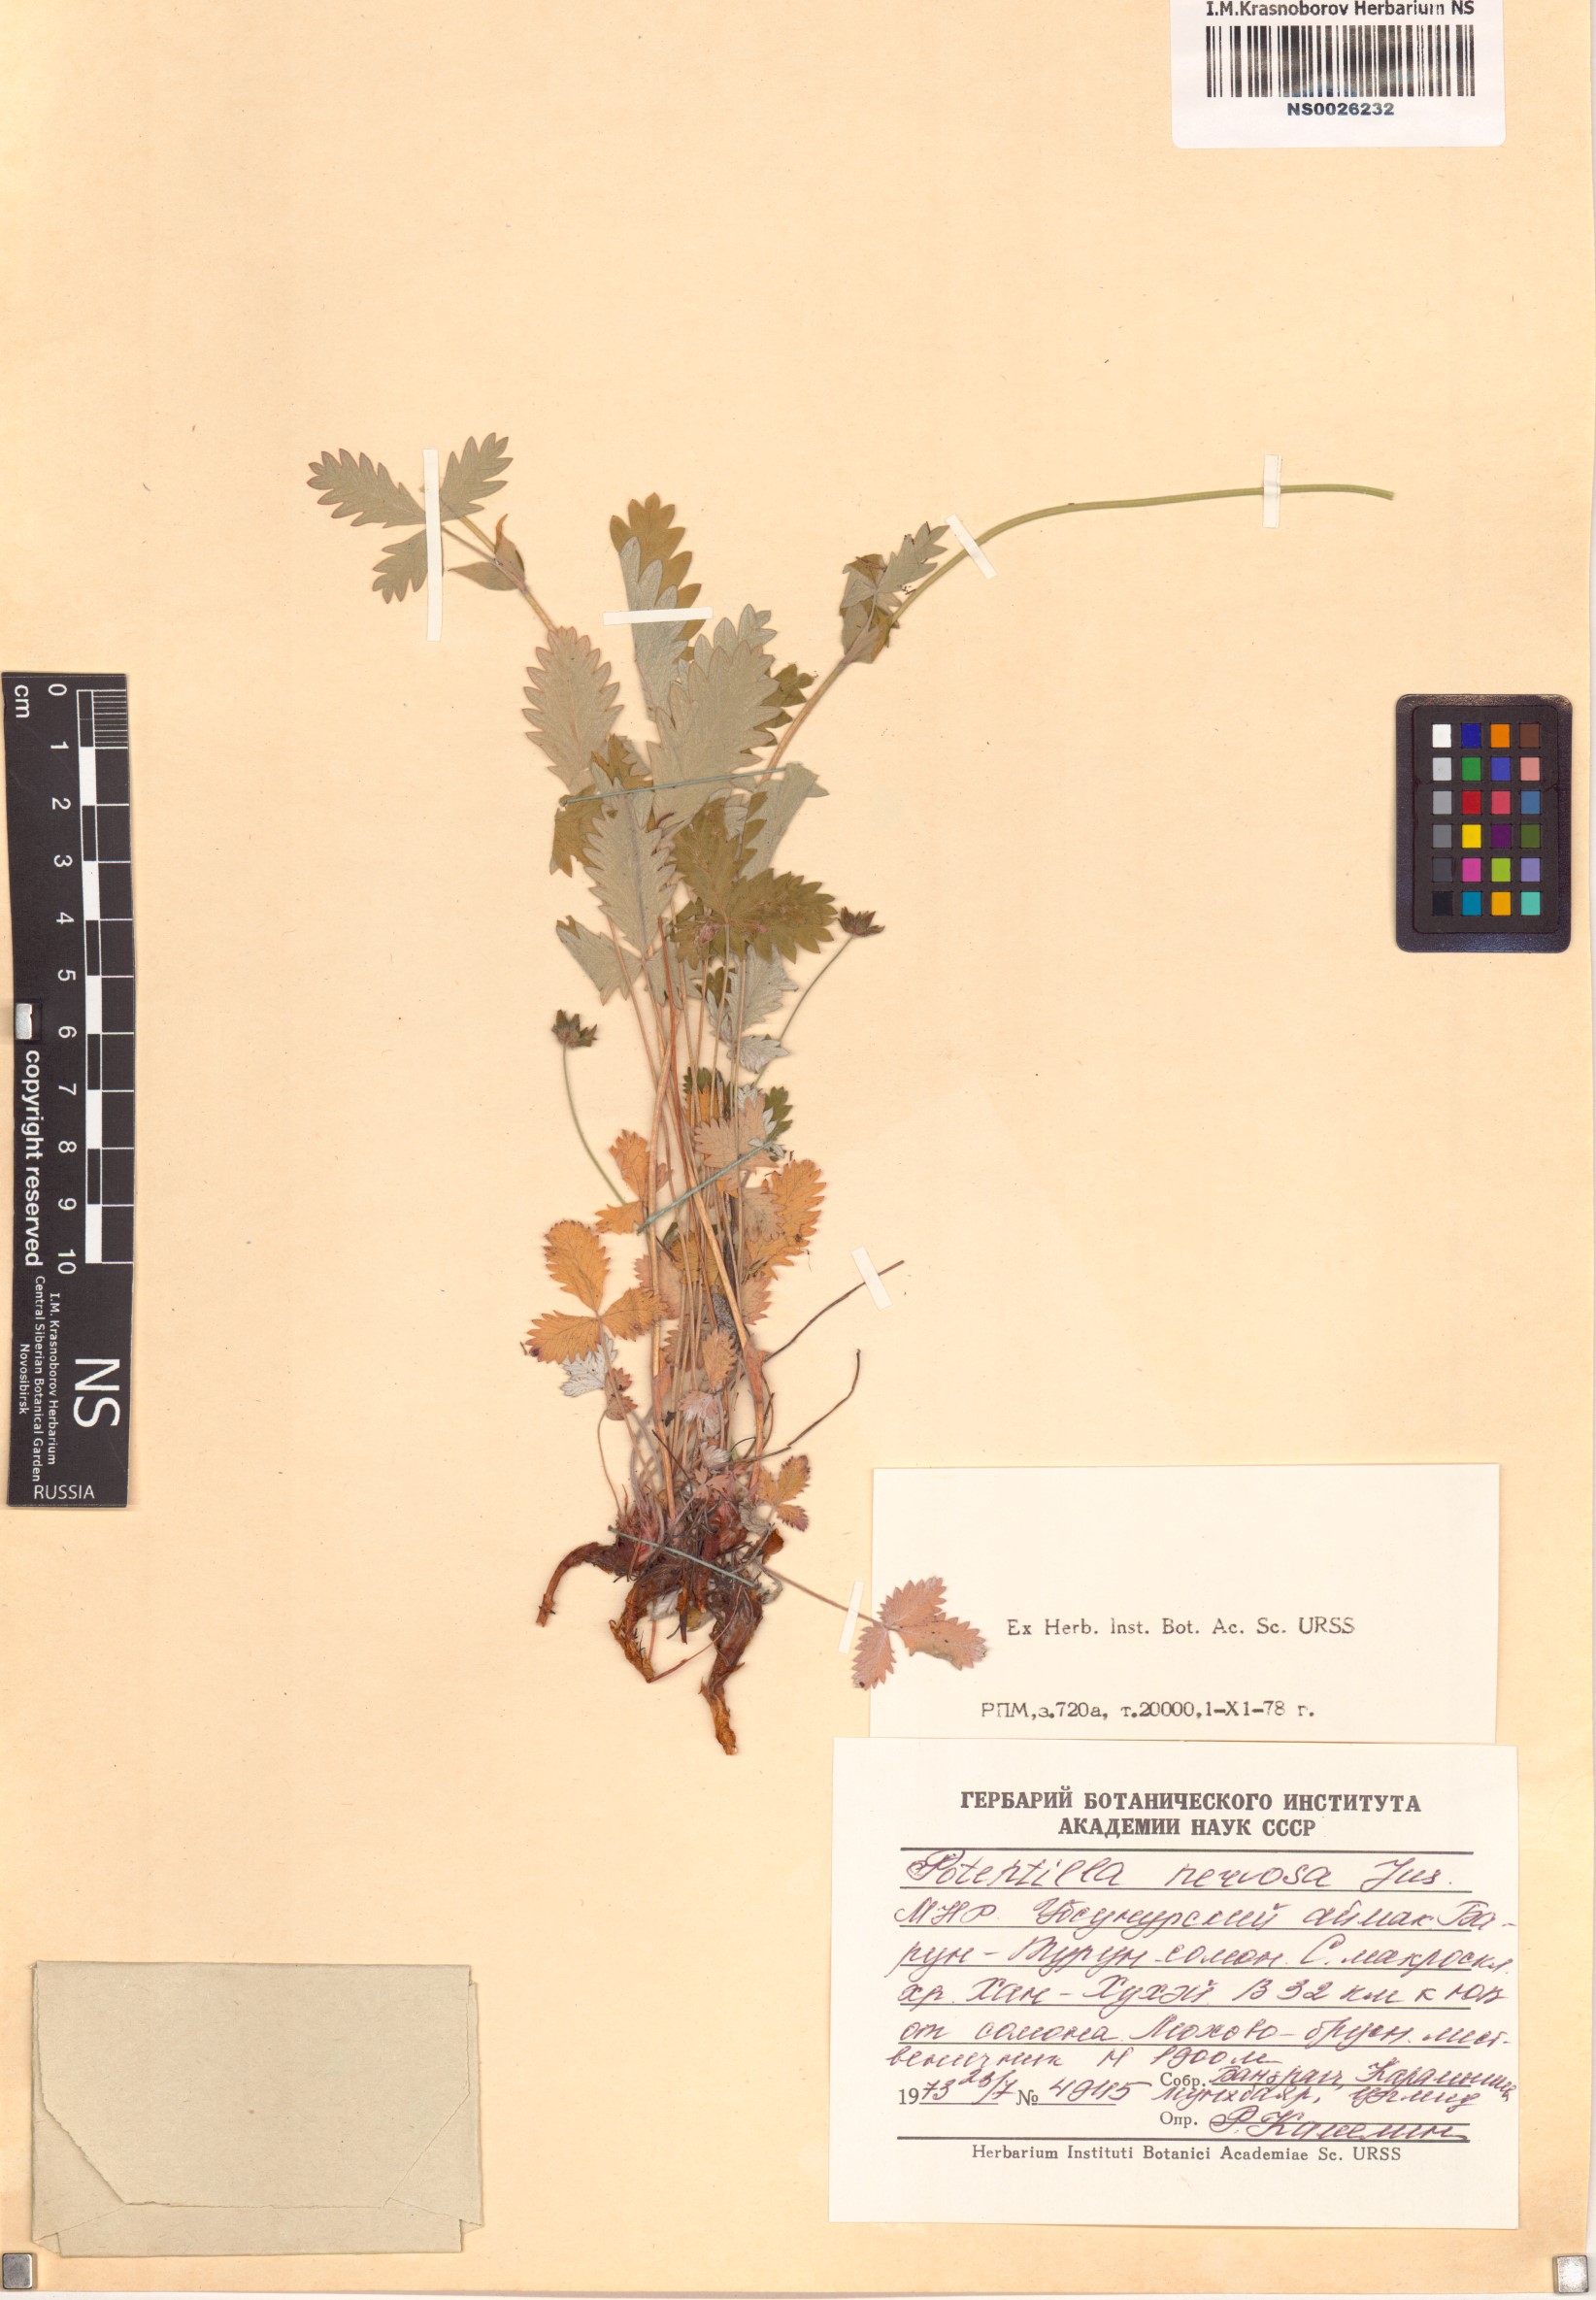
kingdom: Plantae
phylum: Tracheophyta
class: Magnoliopsida
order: Rosales
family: Rosaceae
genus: Potentilla
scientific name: Potentilla nervosa
